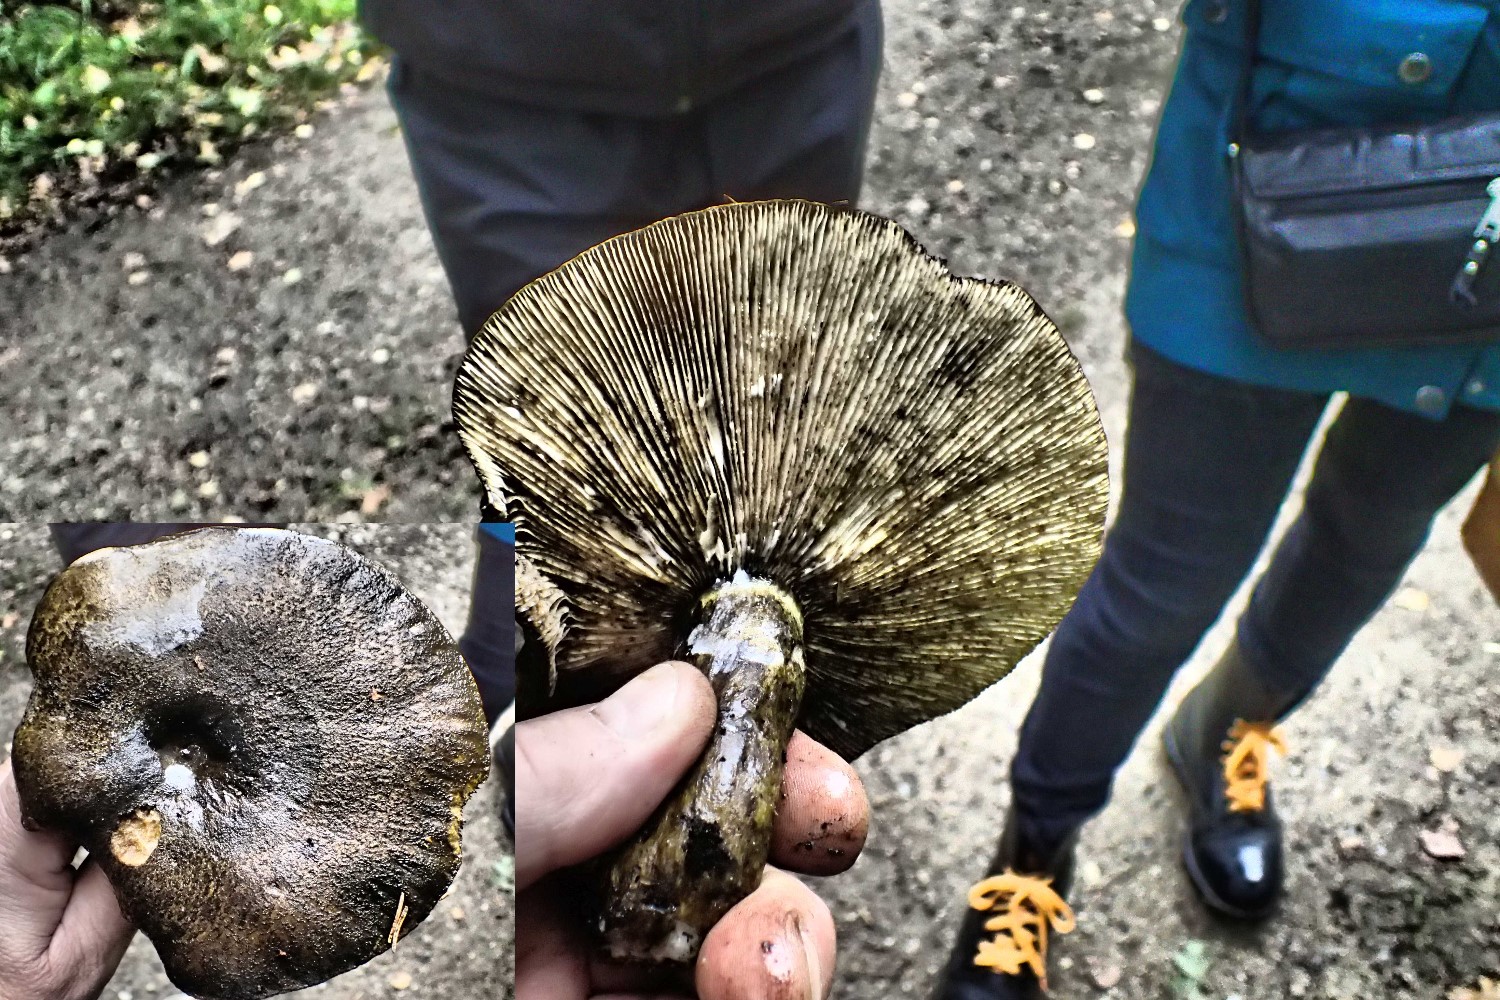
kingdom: Fungi
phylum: Basidiomycota
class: Agaricomycetes
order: Russulales
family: Russulaceae
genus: Lactarius
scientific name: Lactarius necator
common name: manddraber-mælkehat
